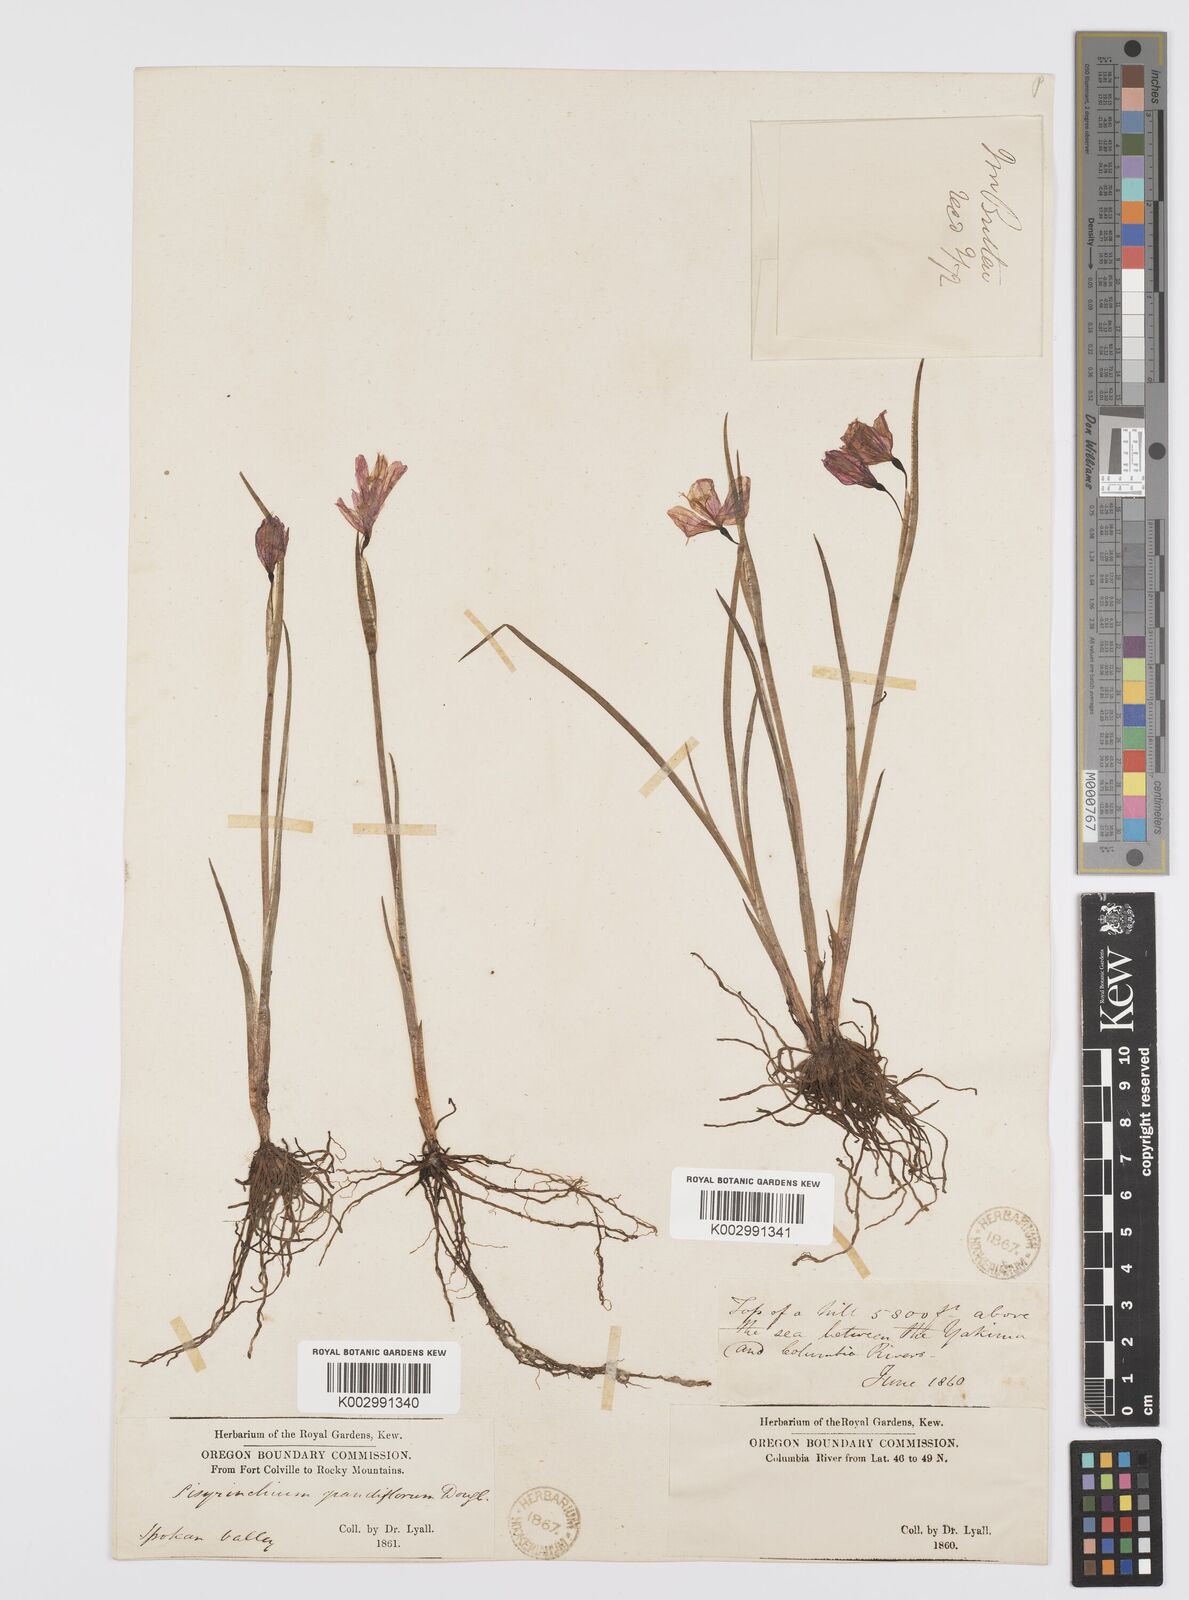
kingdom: Plantae
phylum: Tracheophyta
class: Liliopsida
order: Asparagales
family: Iridaceae
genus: Olsynium
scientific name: Olsynium douglasii
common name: Douglas' grasswidow
